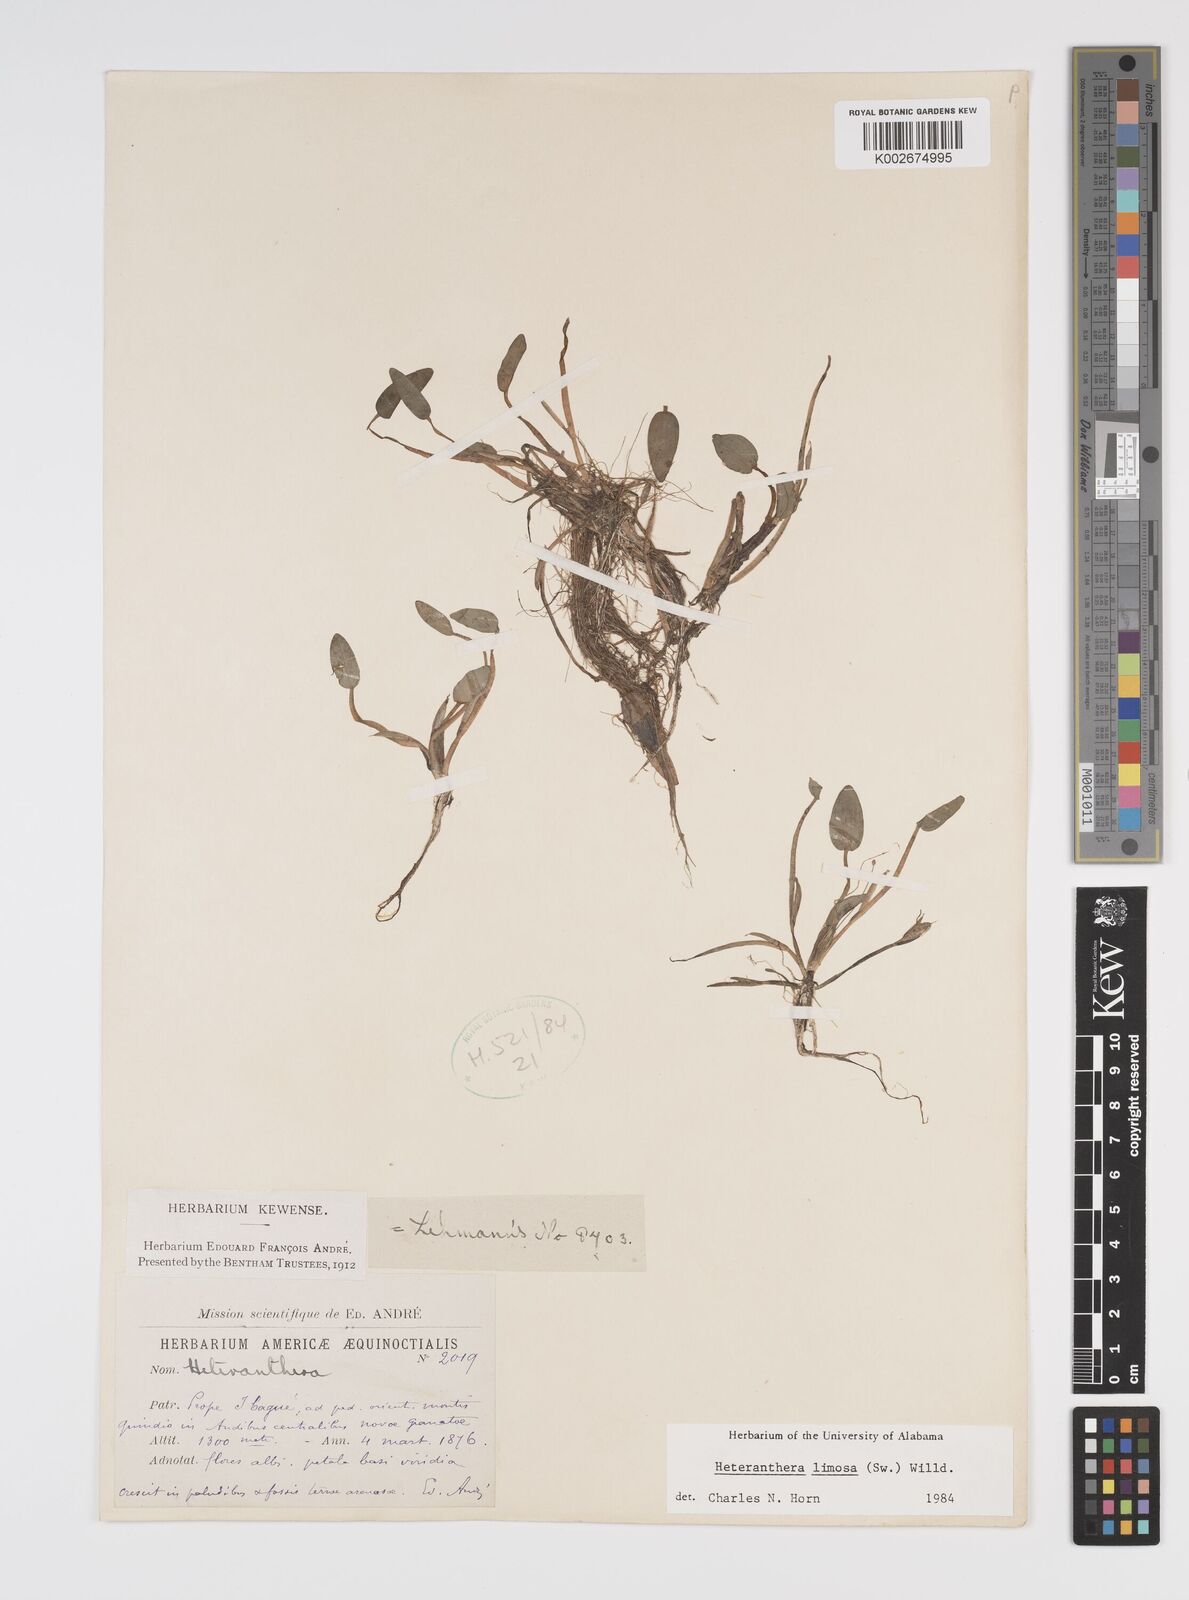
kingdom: Plantae
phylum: Tracheophyta
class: Liliopsida
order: Commelinales
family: Pontederiaceae
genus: Heteranthera
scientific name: Heteranthera limosa
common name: Blue mud-plantain
